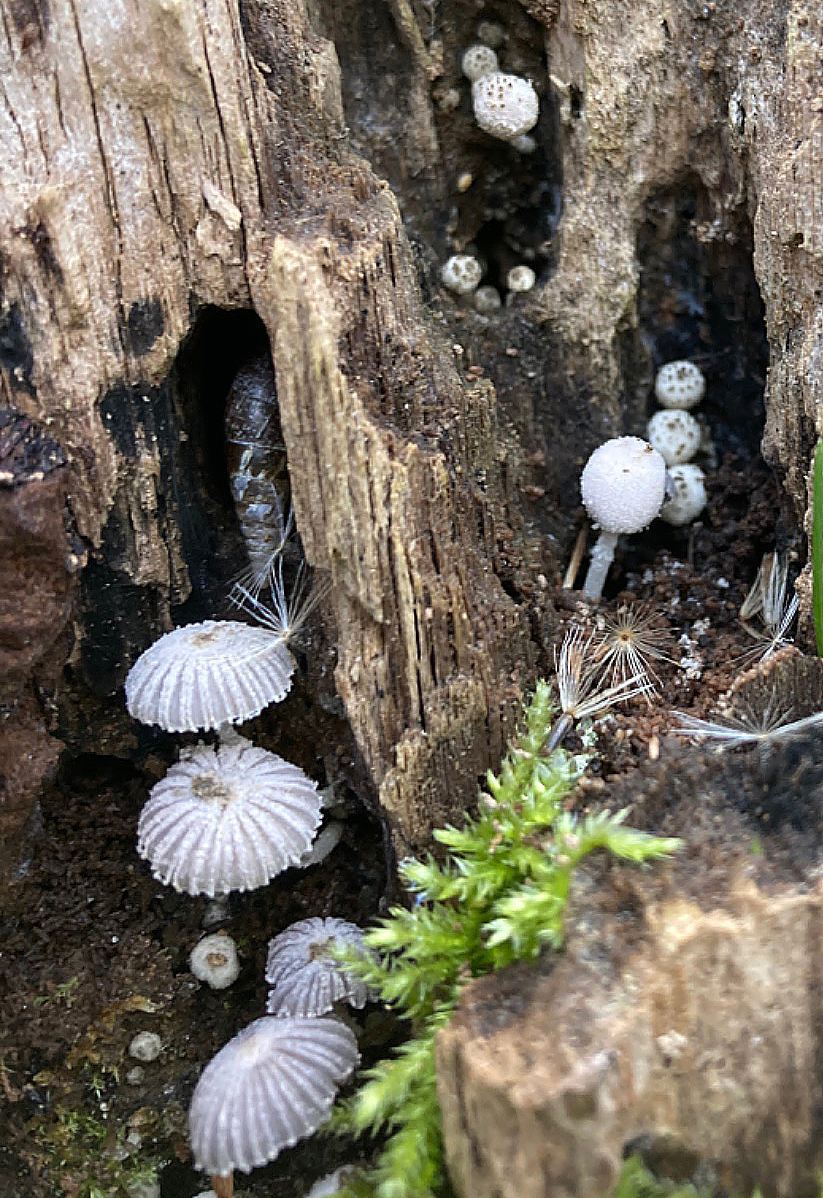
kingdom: Fungi
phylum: Basidiomycota
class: Agaricomycetes
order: Agaricales
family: Psathyrellaceae
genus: Coprinopsis
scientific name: Coprinopsis coniophora
